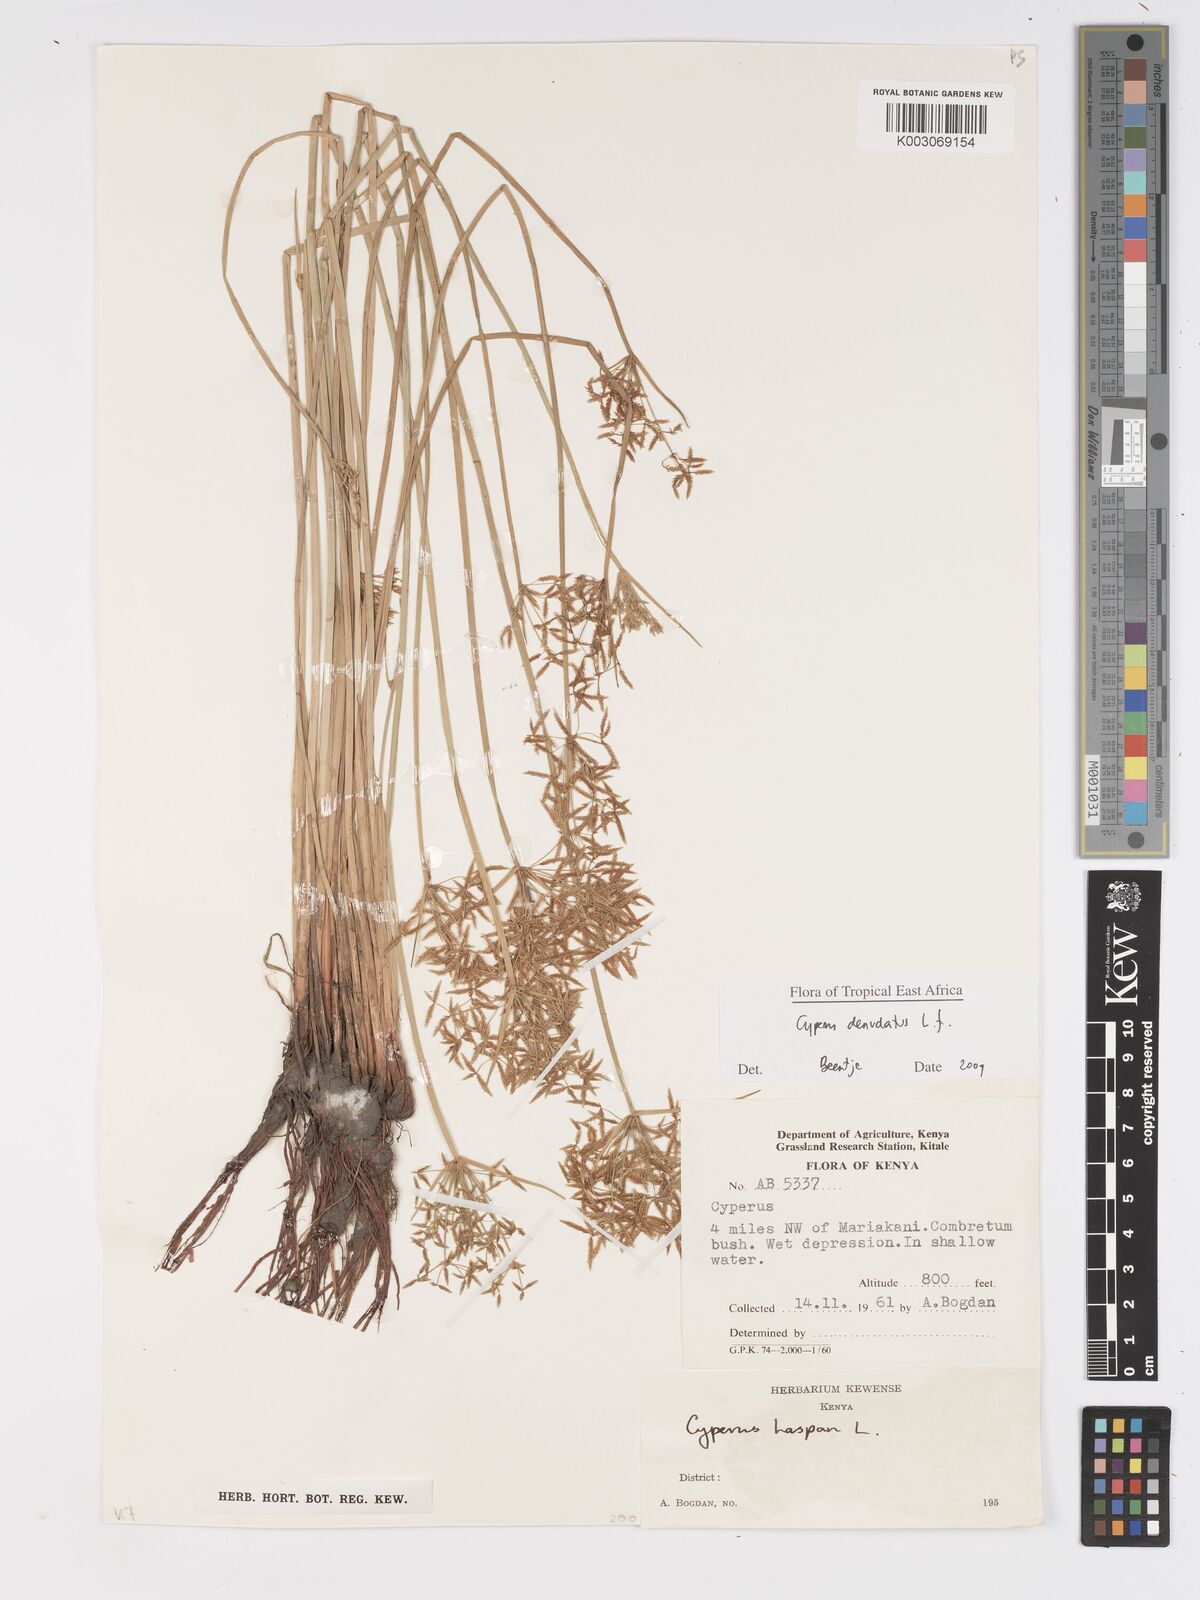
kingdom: Plantae
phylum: Tracheophyta
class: Liliopsida
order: Poales
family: Cyperaceae
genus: Cyperus
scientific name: Cyperus denudatus
